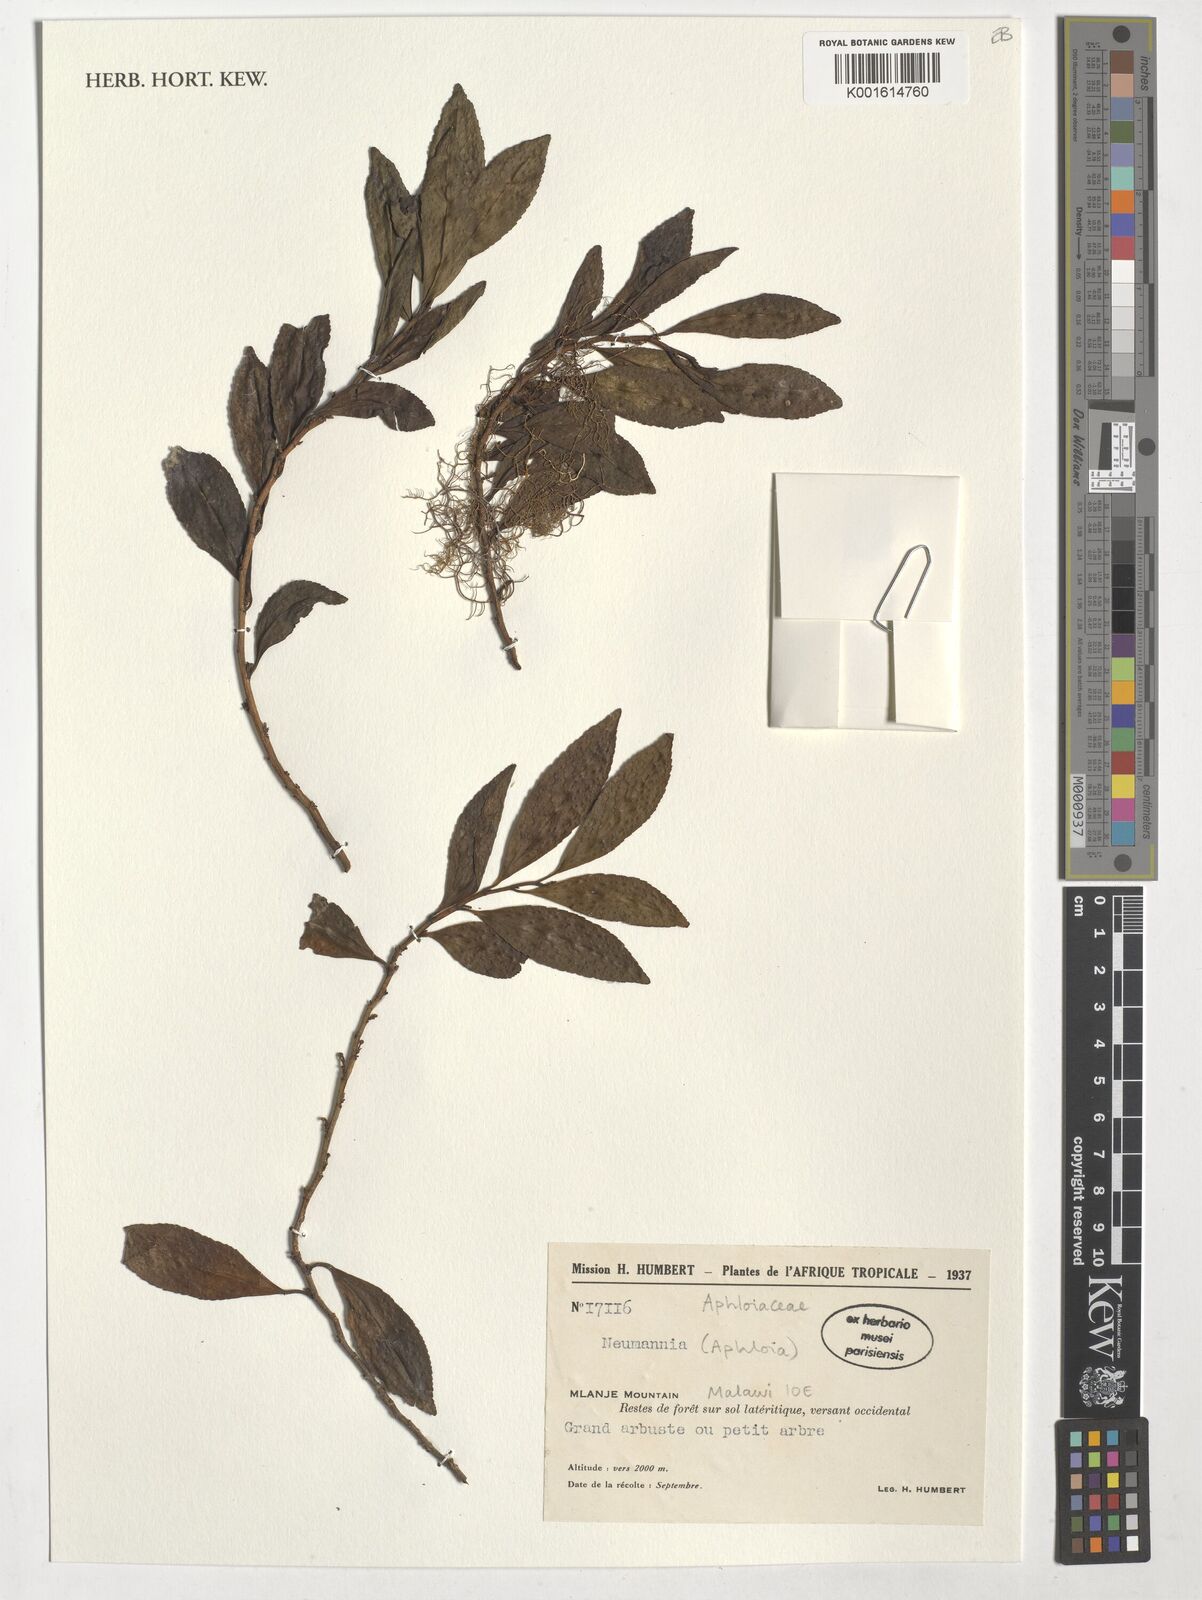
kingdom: Animalia
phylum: Mollusca
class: Cephalopoda
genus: Neumannia
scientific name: Neumannia
